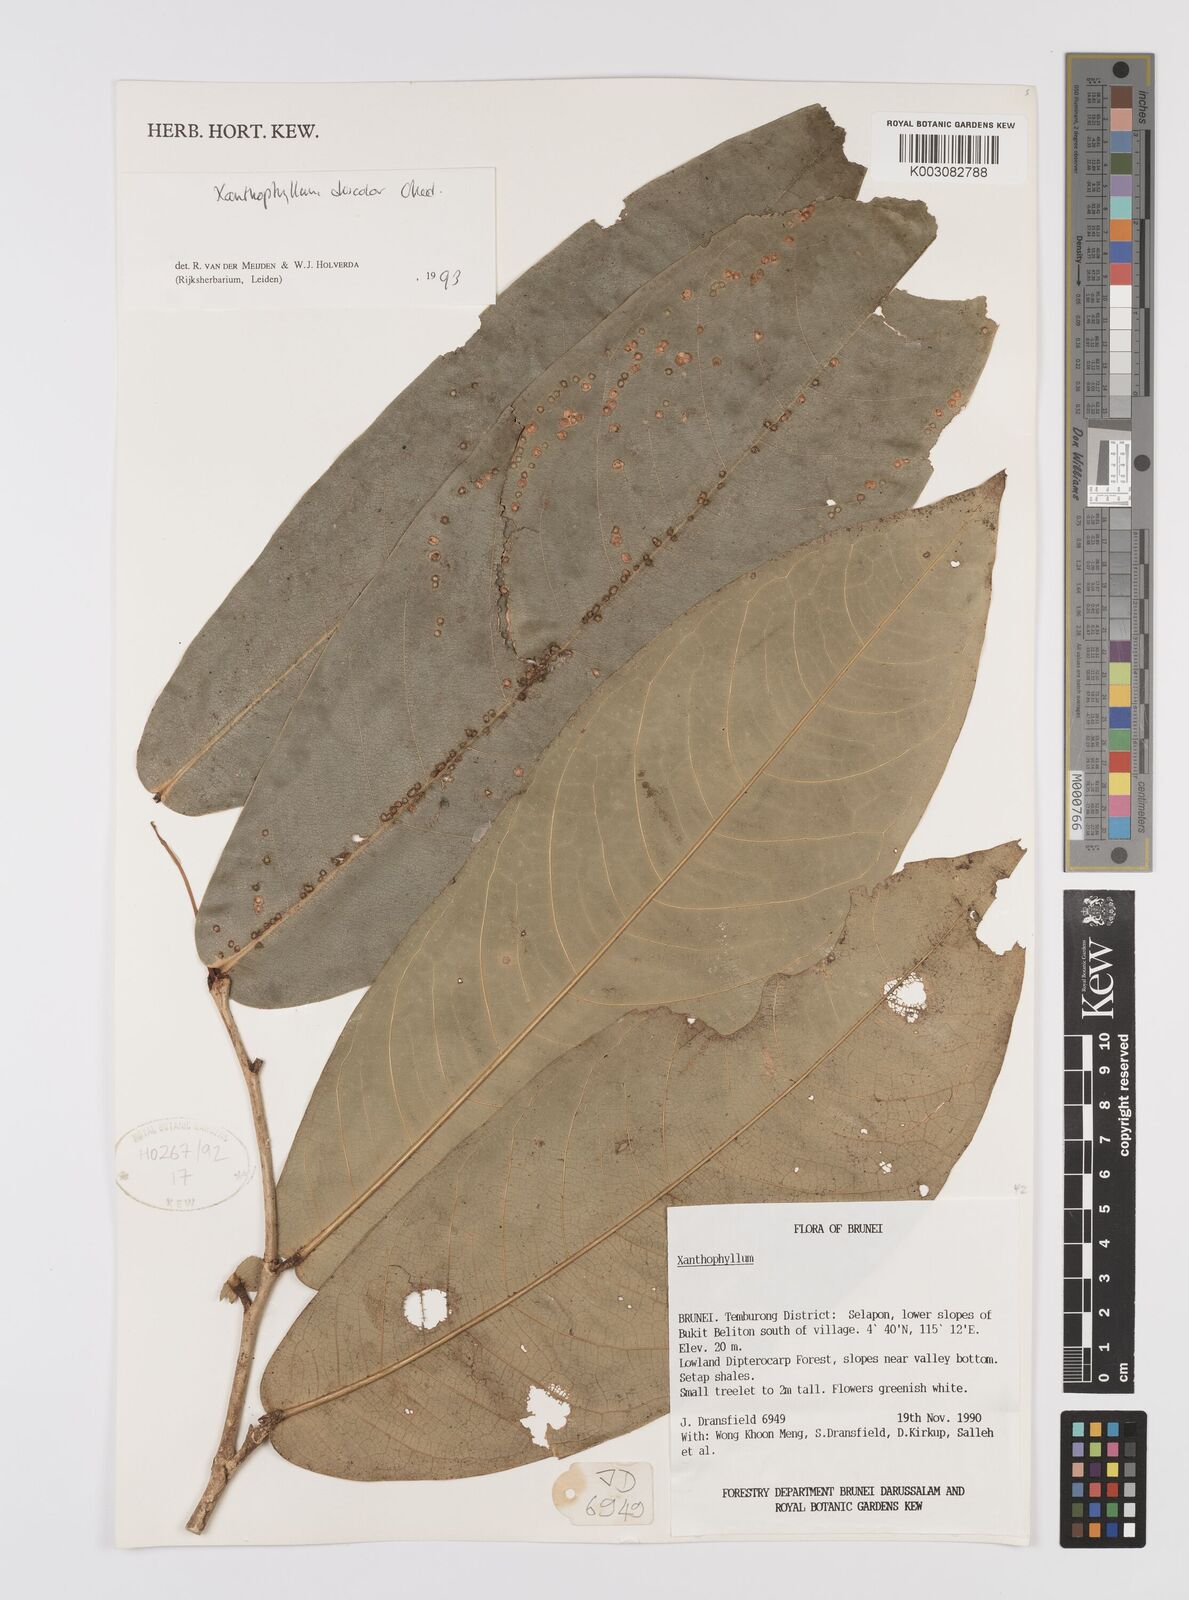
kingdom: Plantae
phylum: Tracheophyta
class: Magnoliopsida
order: Fabales
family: Polygalaceae
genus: Xanthophyllum
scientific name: Xanthophyllum discolor
